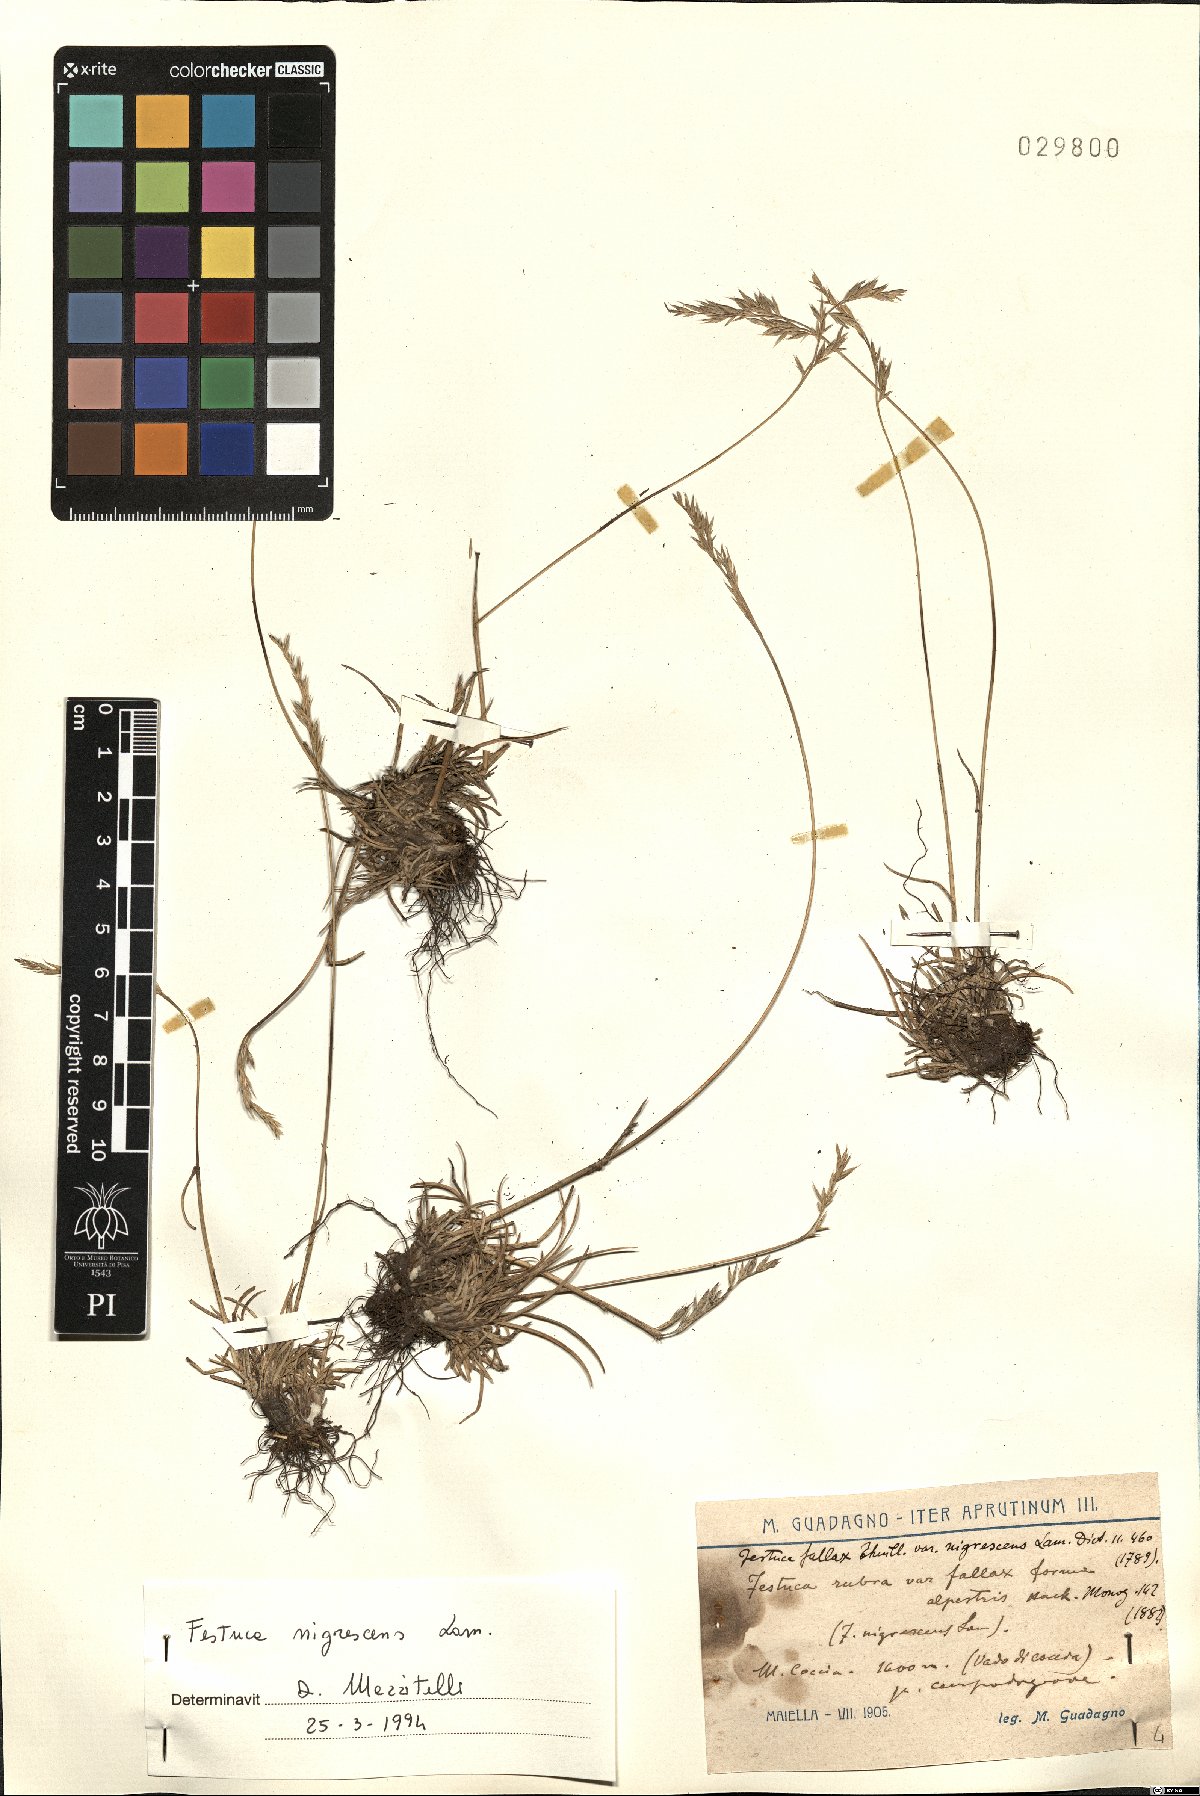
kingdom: Plantae
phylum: Tracheophyta
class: Liliopsida
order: Poales
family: Poaceae
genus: Festuca
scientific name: Festuca nigrescens
